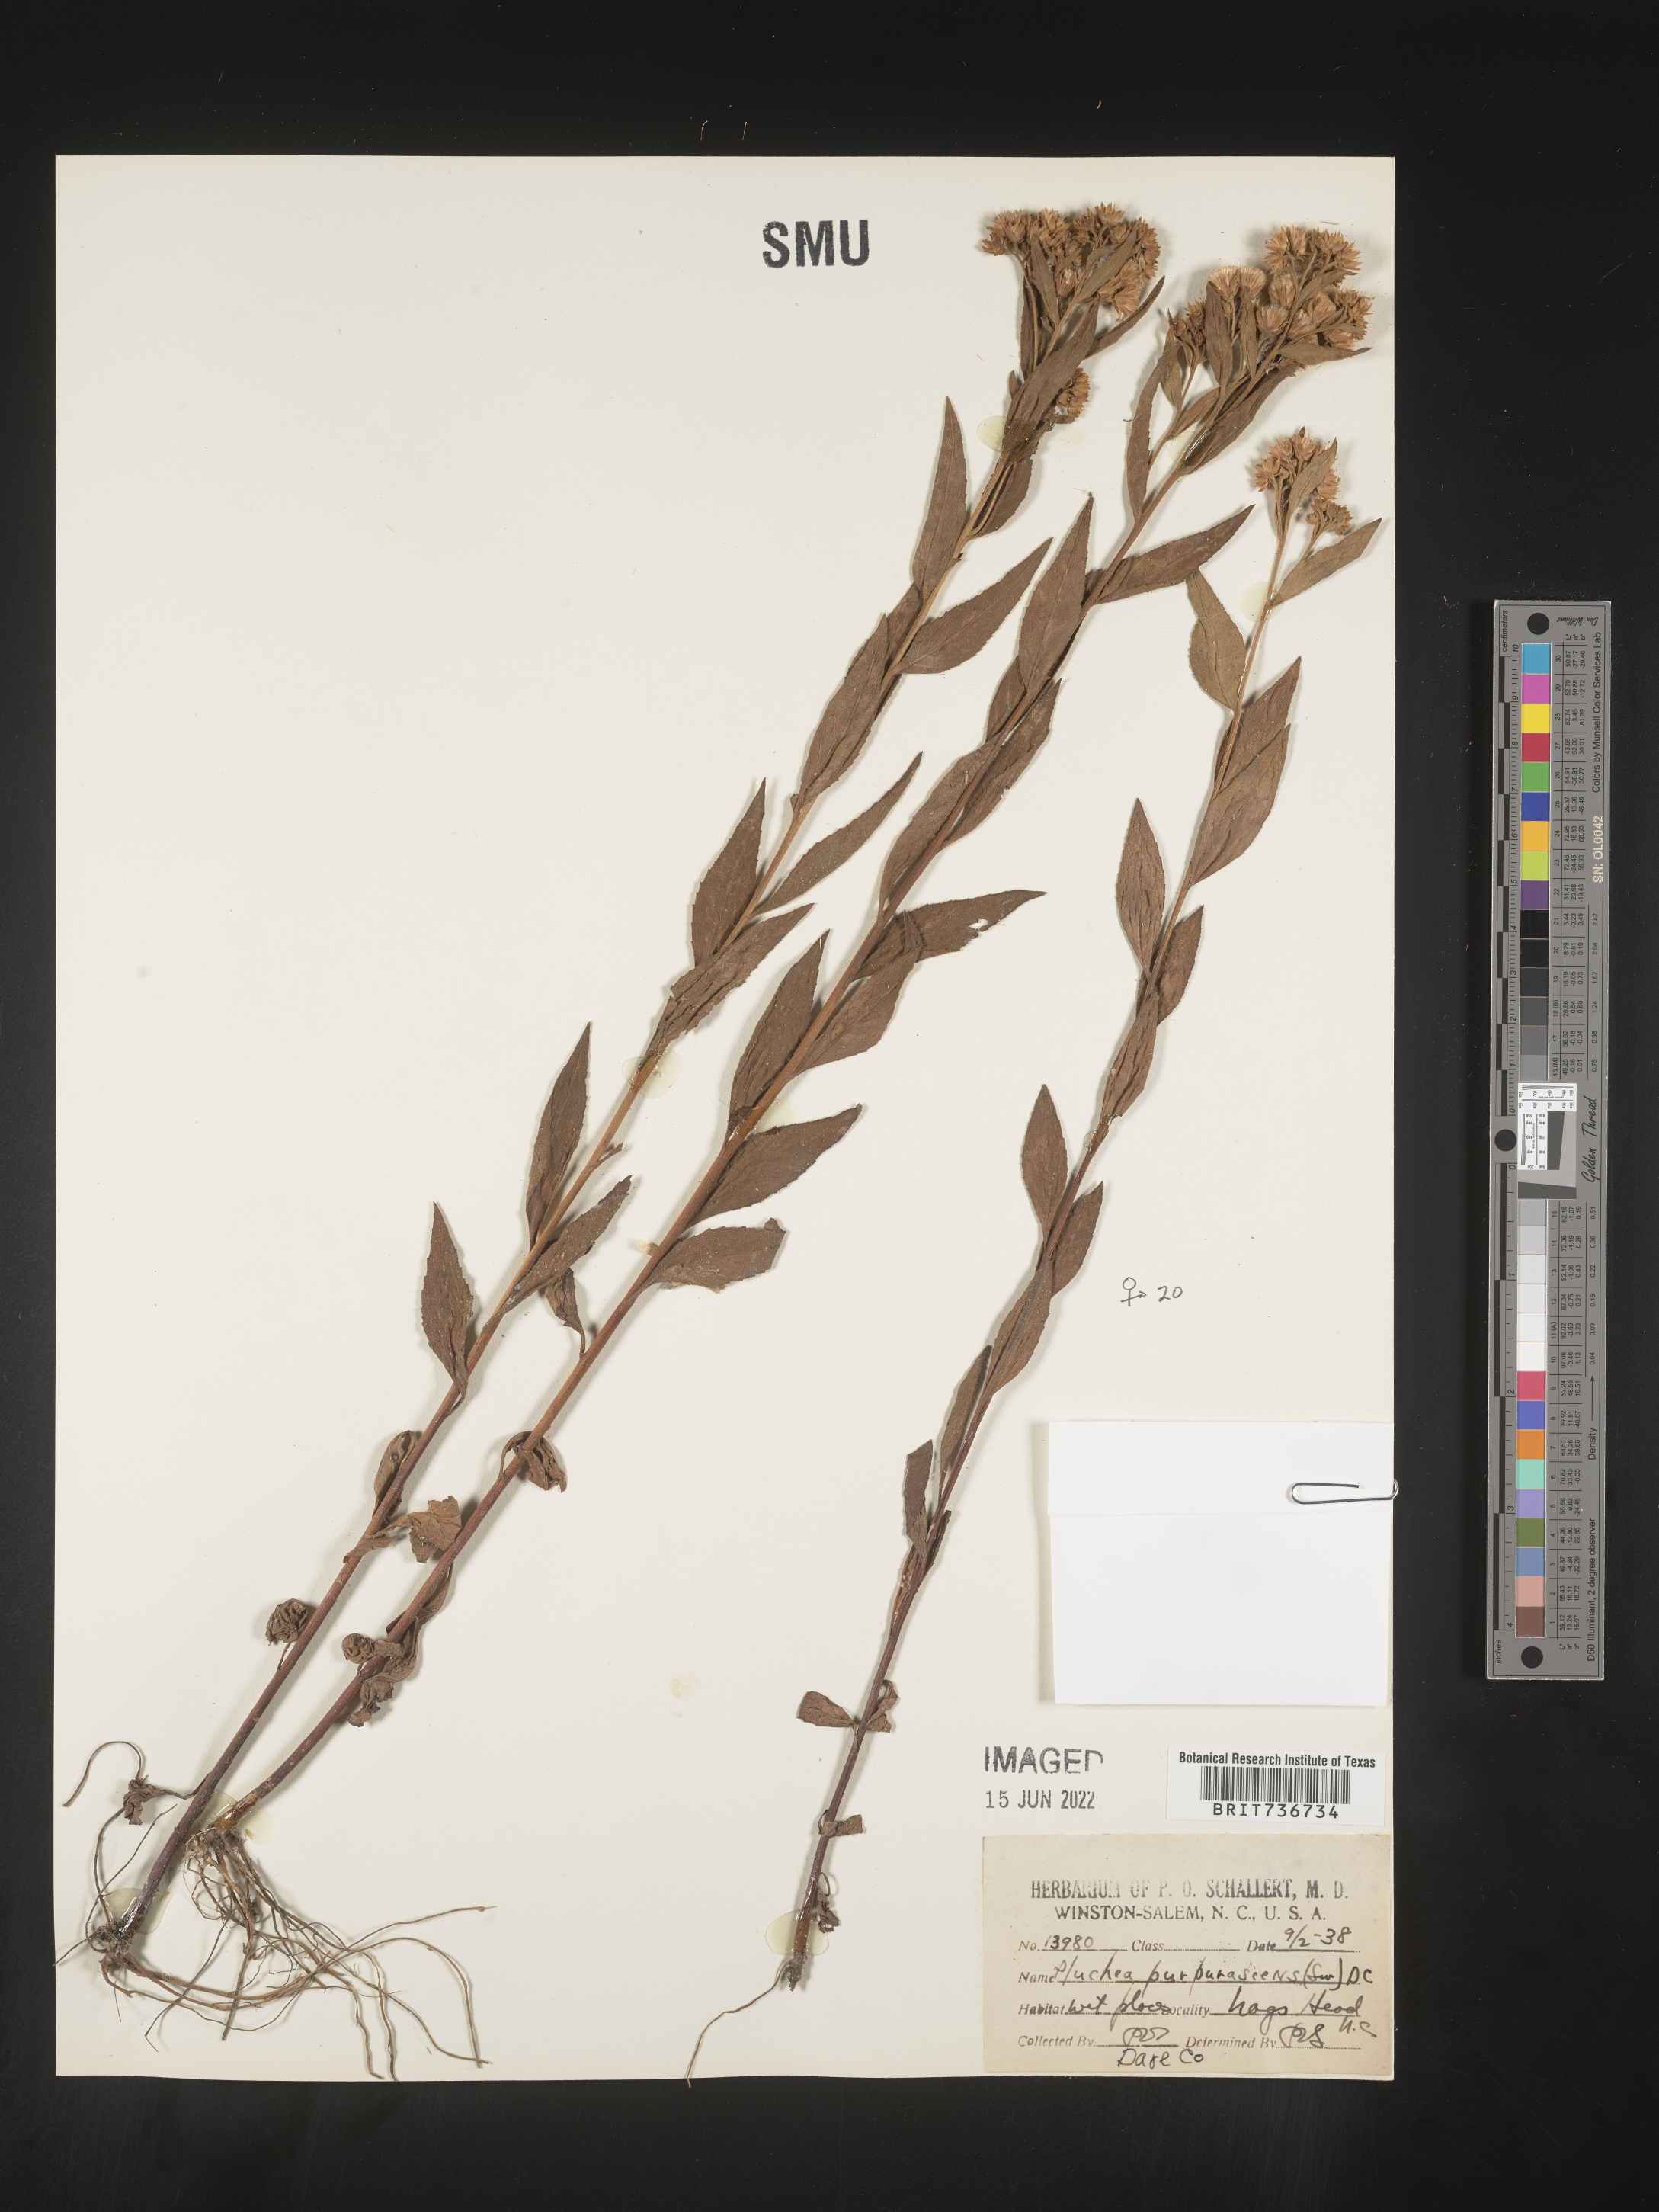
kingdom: Plantae
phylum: Tracheophyta
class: Magnoliopsida
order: Asterales
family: Asteraceae
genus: Pluchea
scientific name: Pluchea odorata
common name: Saltmarsh fleabane
